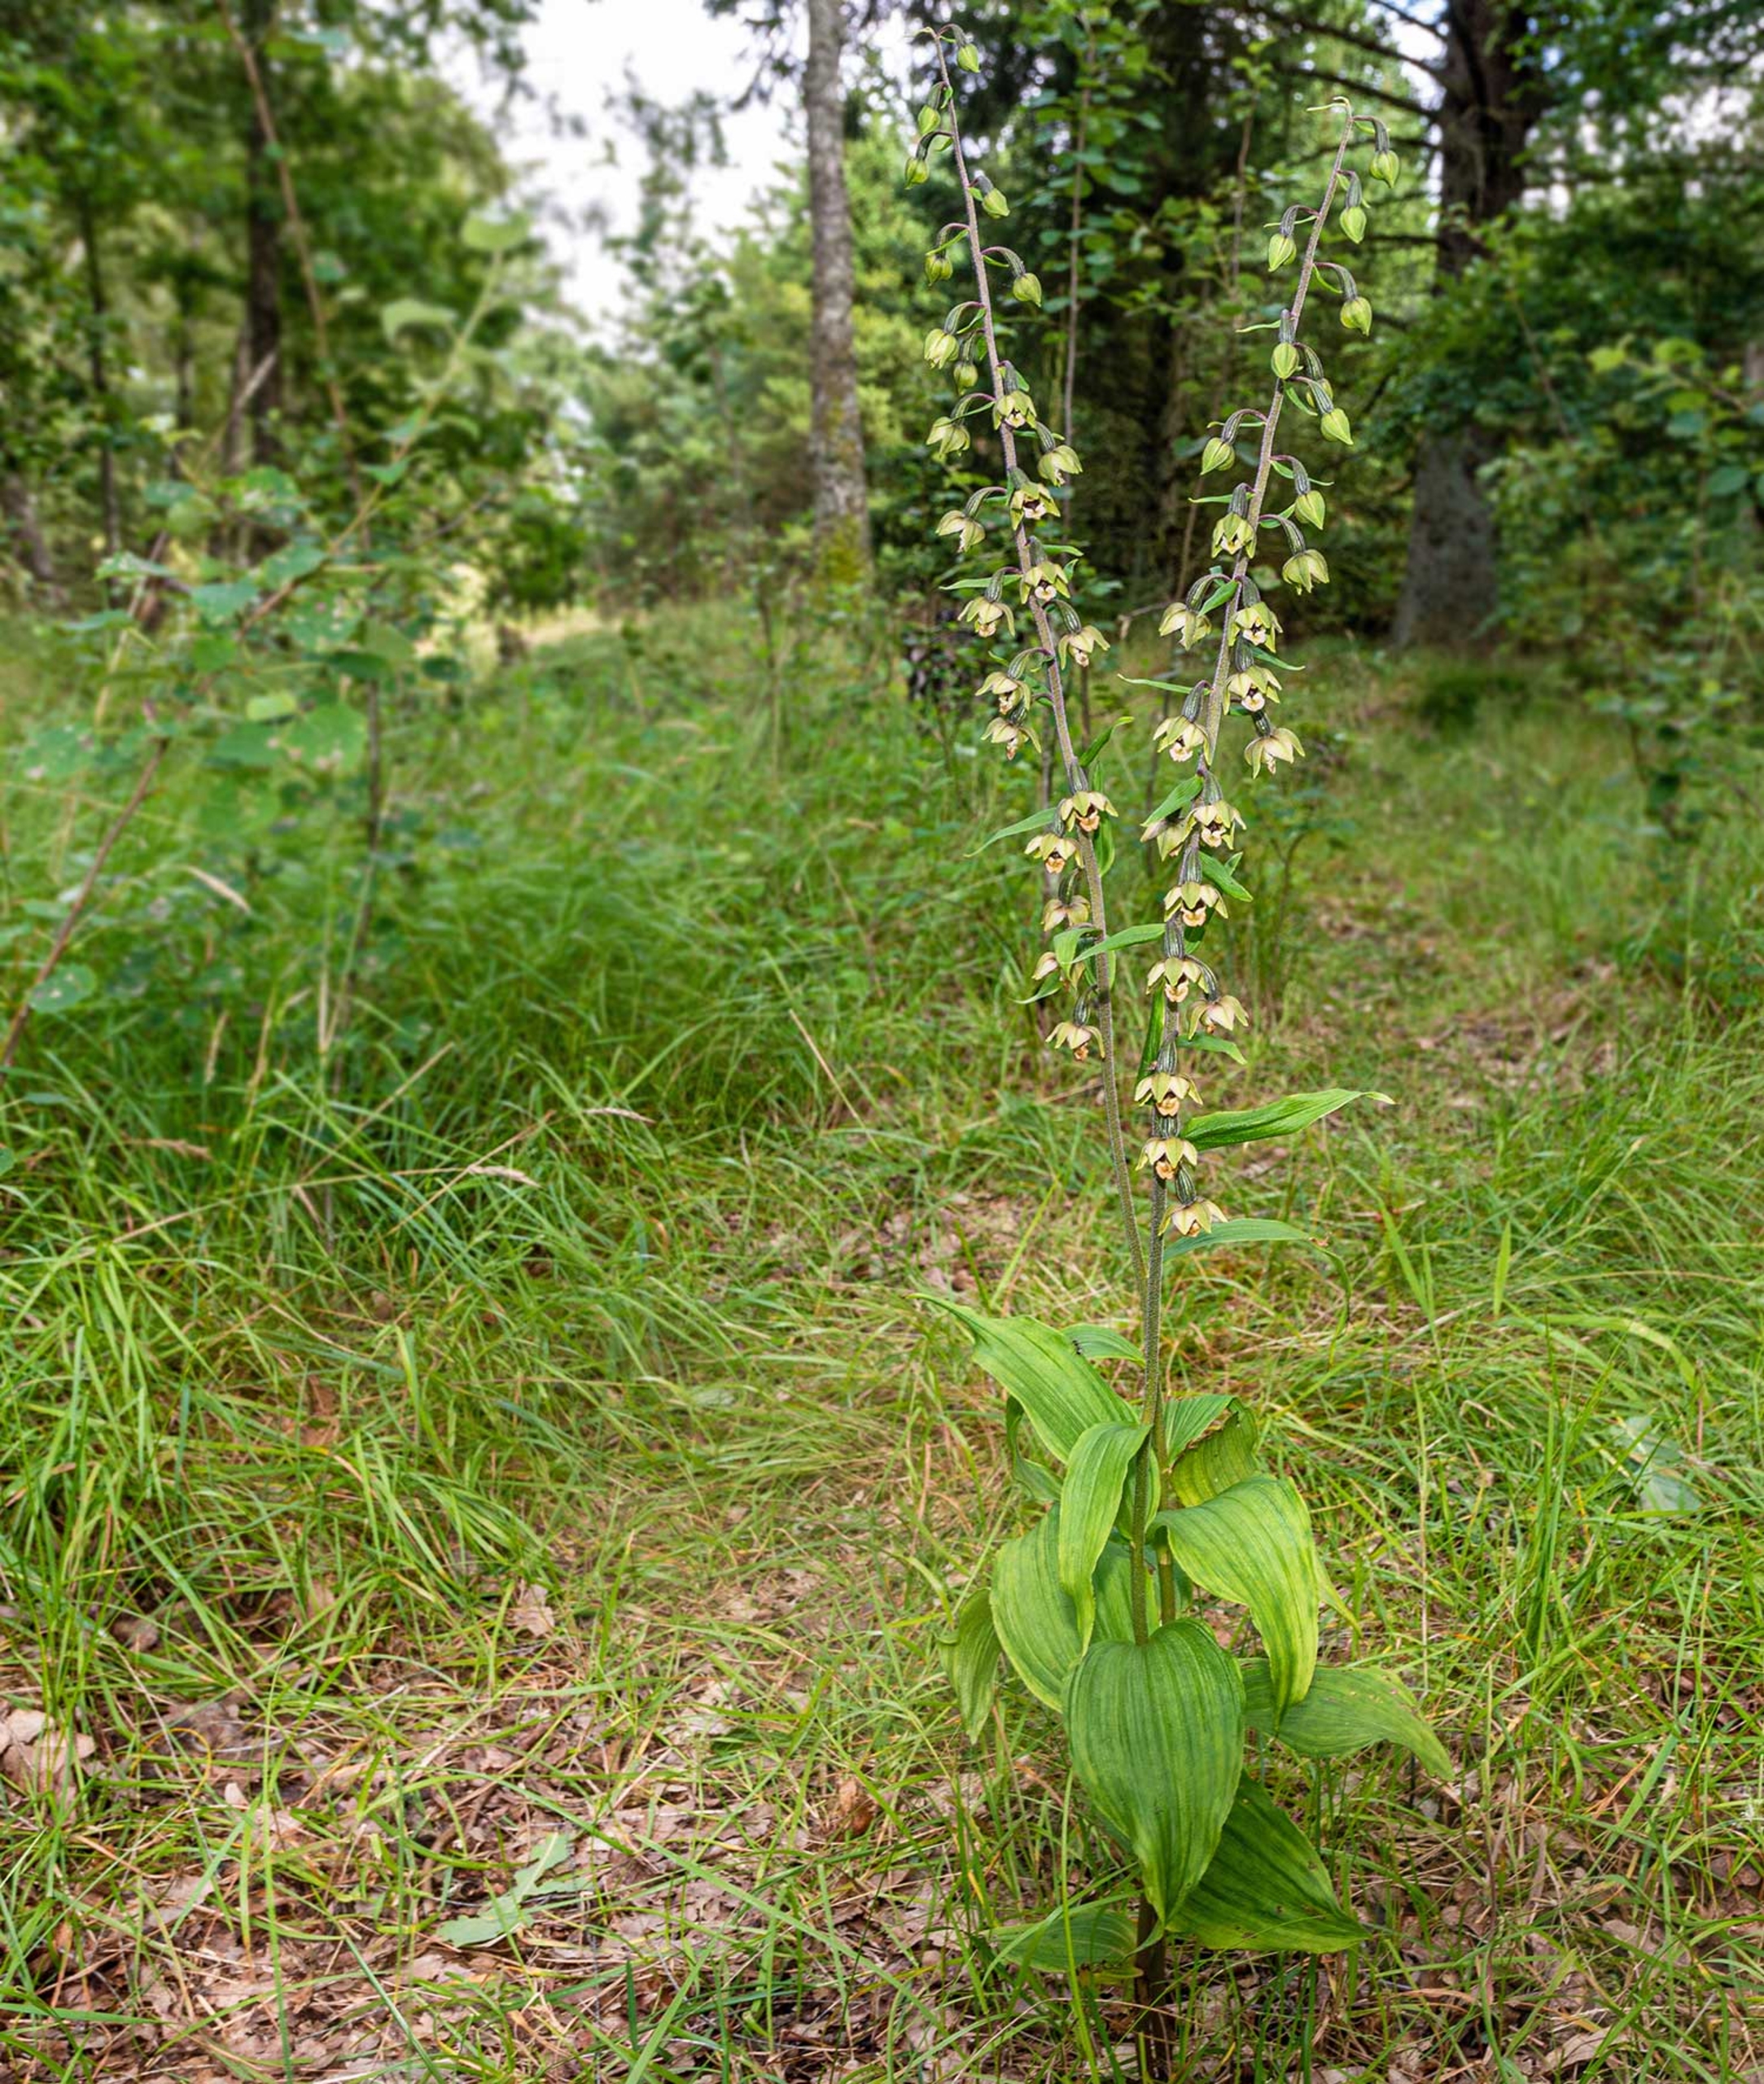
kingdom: Plantae
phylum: Tracheophyta
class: Liliopsida
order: Asparagales
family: Orchidaceae
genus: Epipactis
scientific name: Epipactis helleborine
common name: Skov-hullæbe
